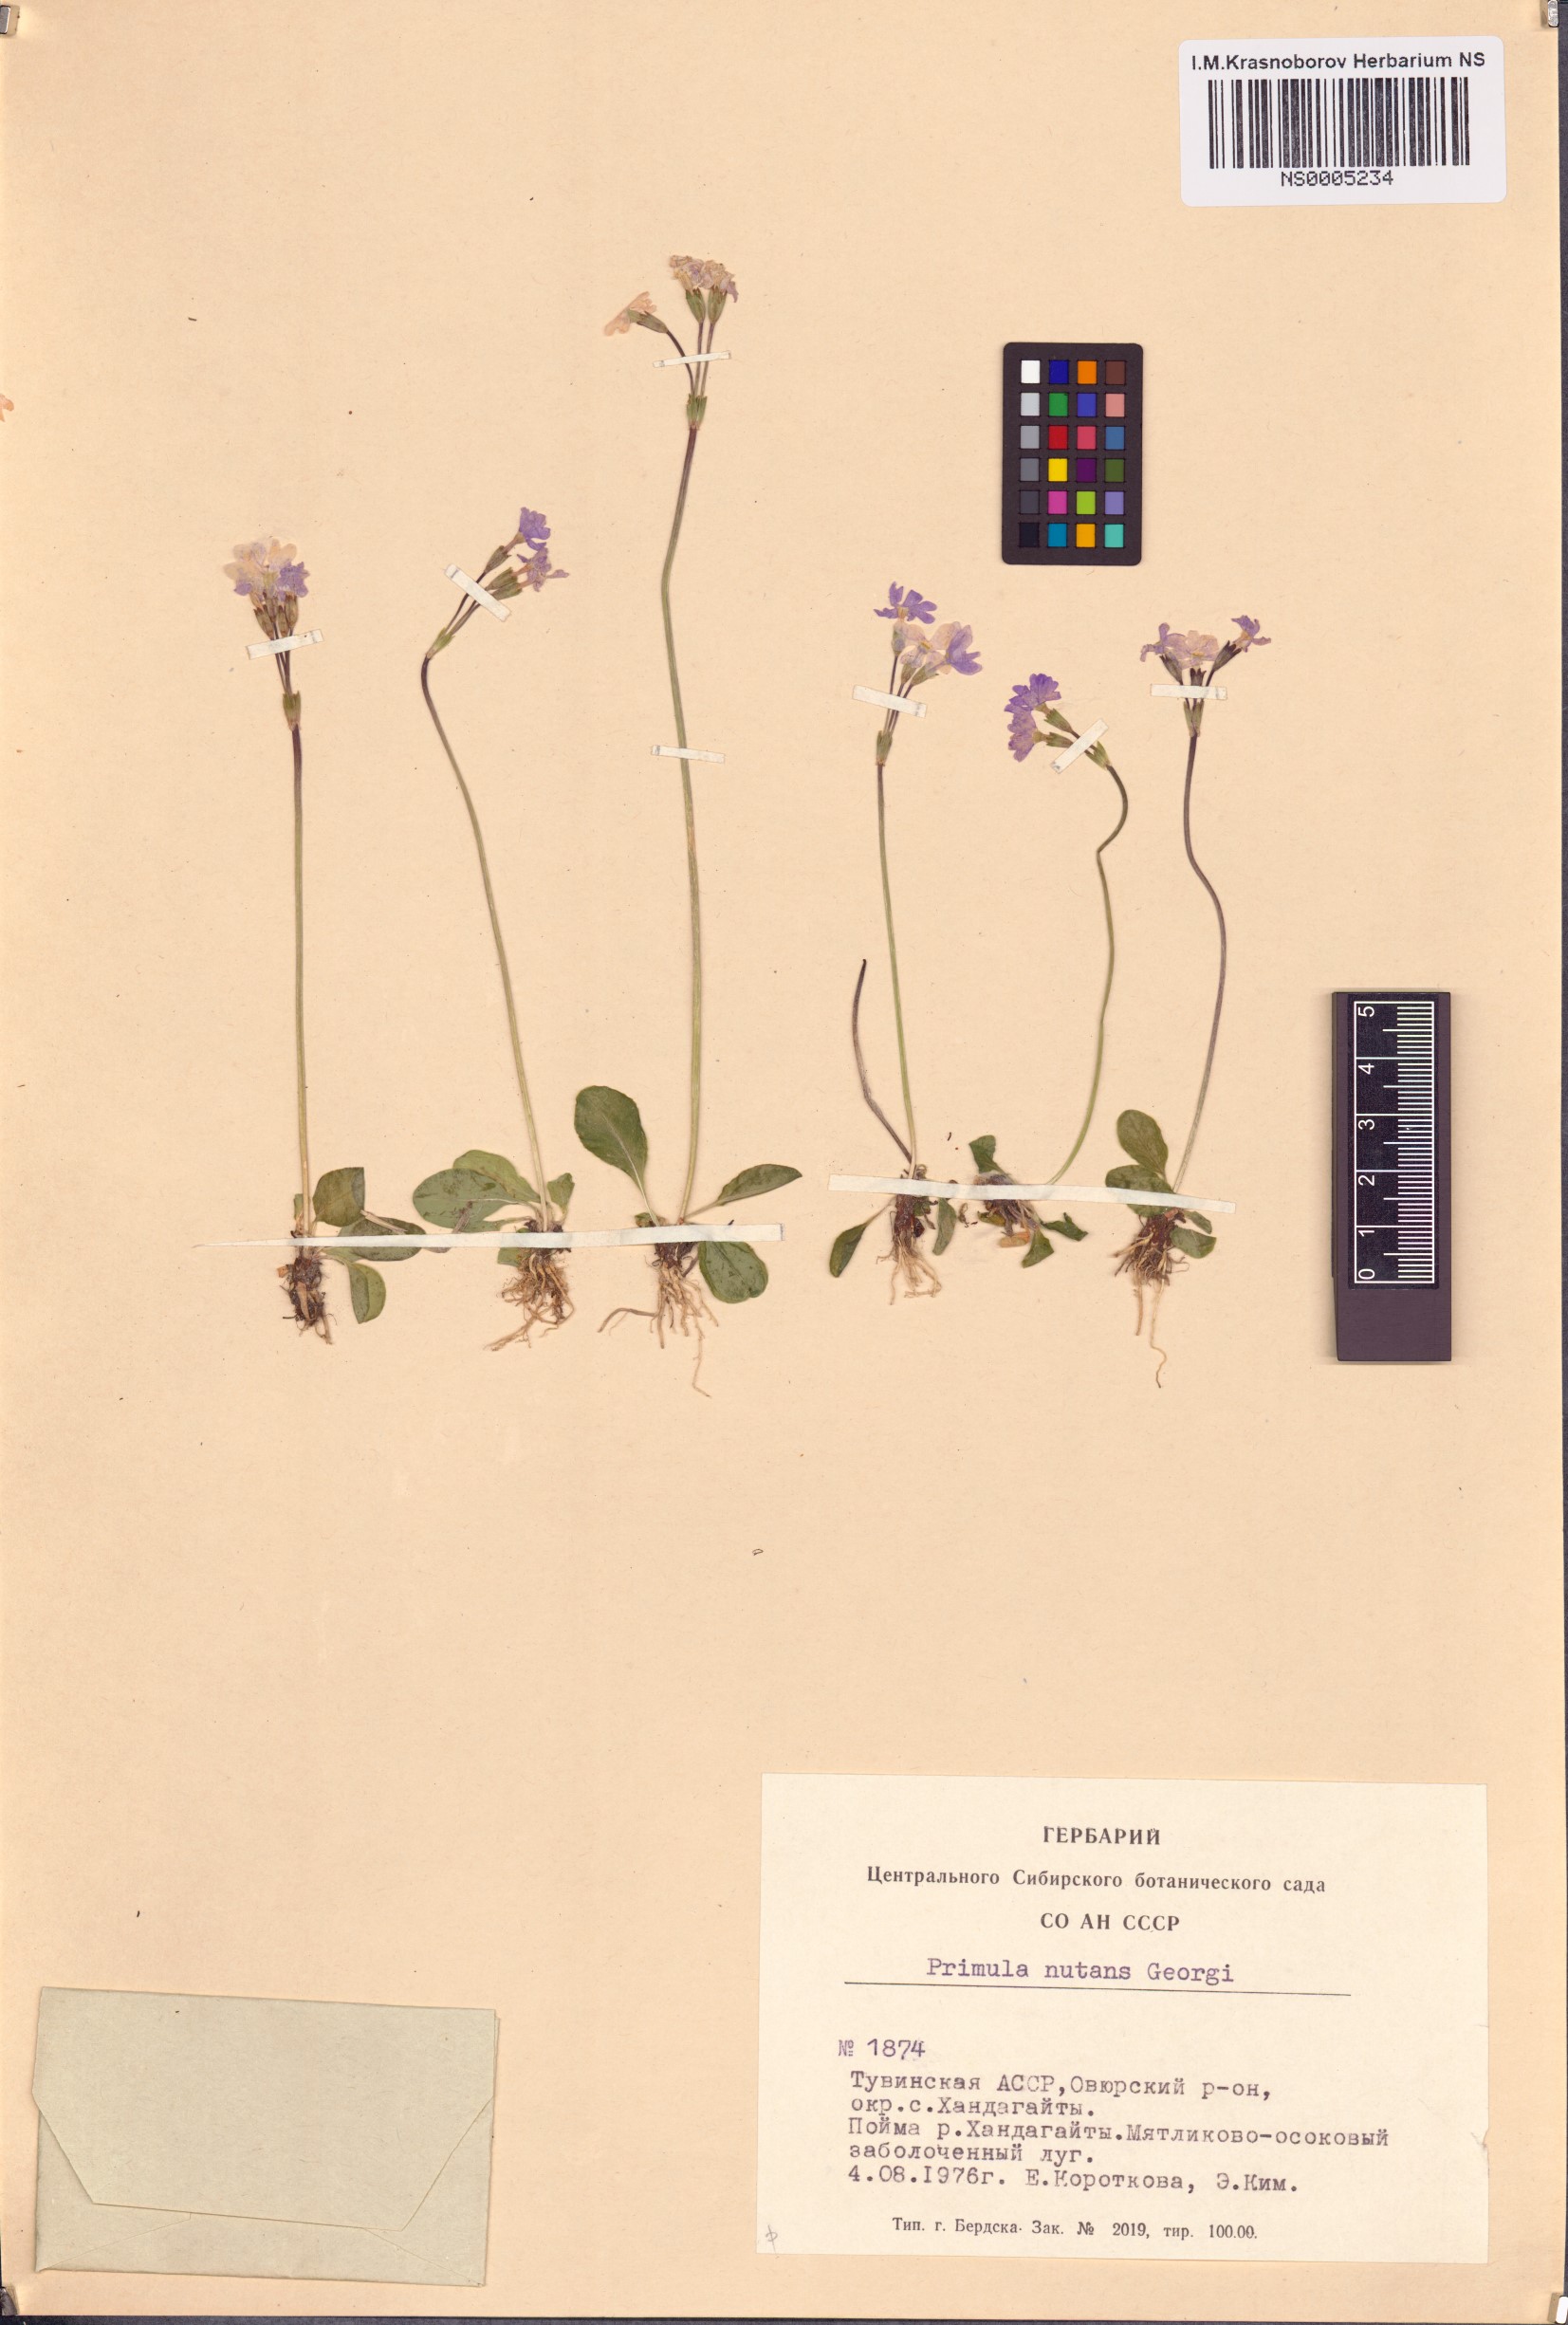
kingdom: Plantae
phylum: Tracheophyta
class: Magnoliopsida
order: Ericales
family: Primulaceae
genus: Primula
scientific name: Primula nutans
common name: Siberian primrose
